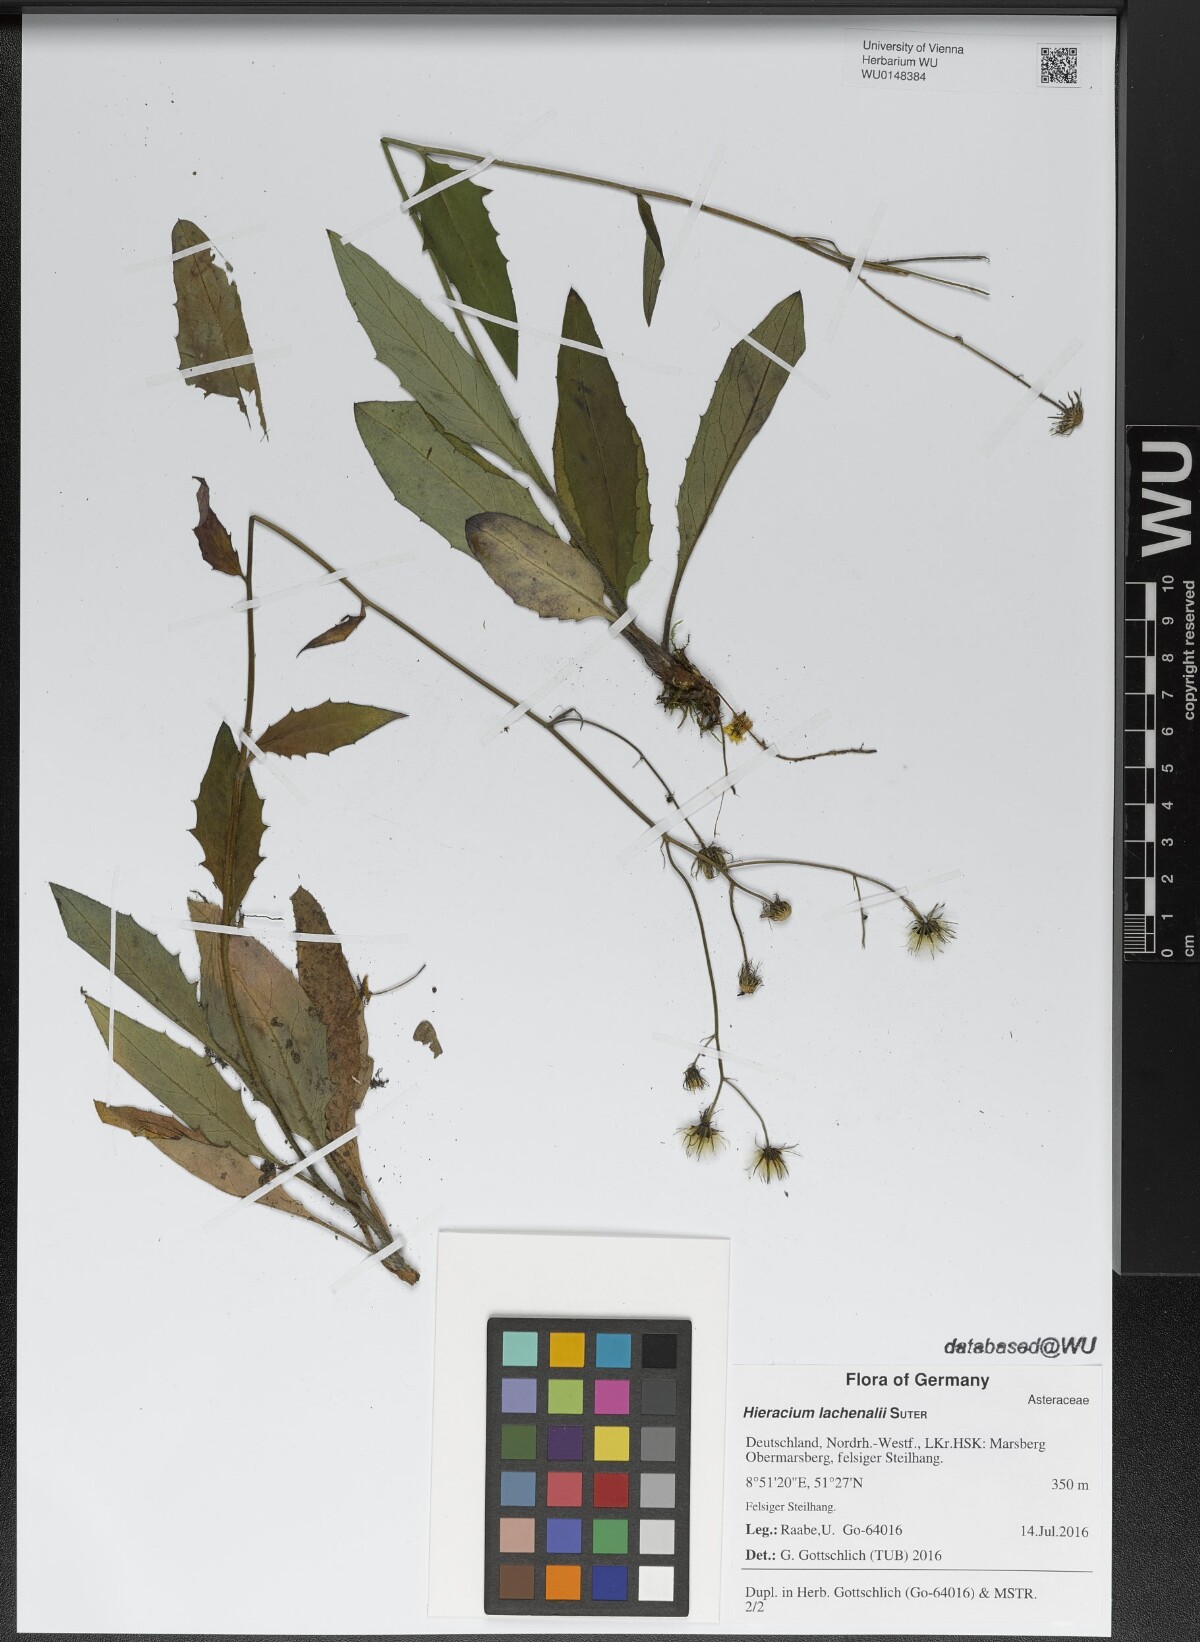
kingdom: Plantae
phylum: Tracheophyta
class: Magnoliopsida
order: Asterales
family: Asteraceae
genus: Hieracium
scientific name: Hieracium lachenalii
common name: Common hawkweed
